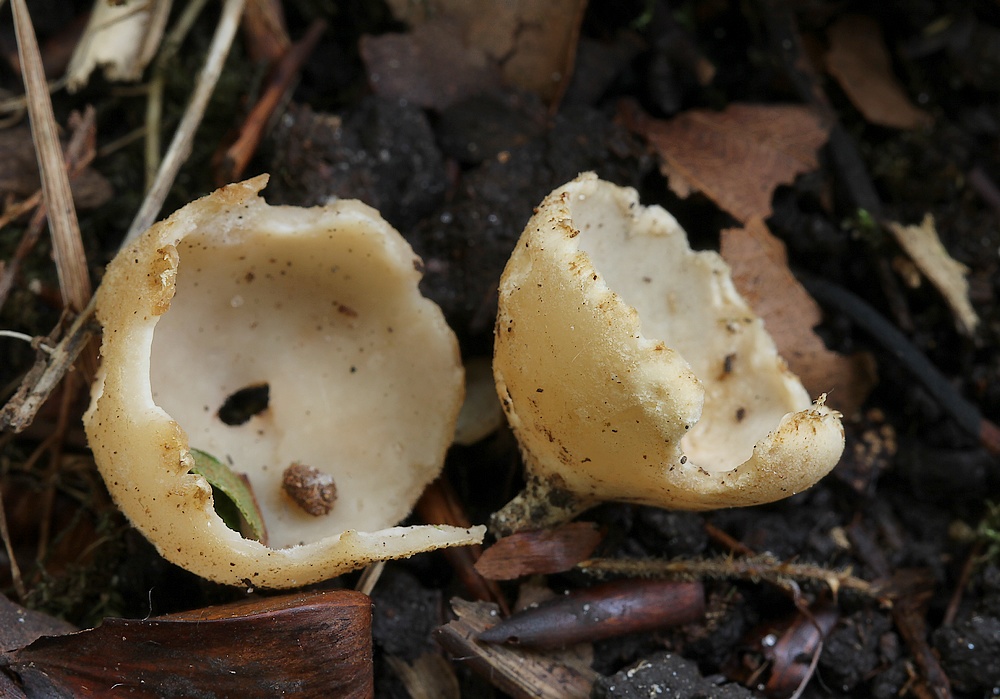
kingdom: Fungi
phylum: Ascomycota
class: Pezizomycetes
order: Pezizales
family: Pyronemataceae
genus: Tarzetta
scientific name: Tarzetta
